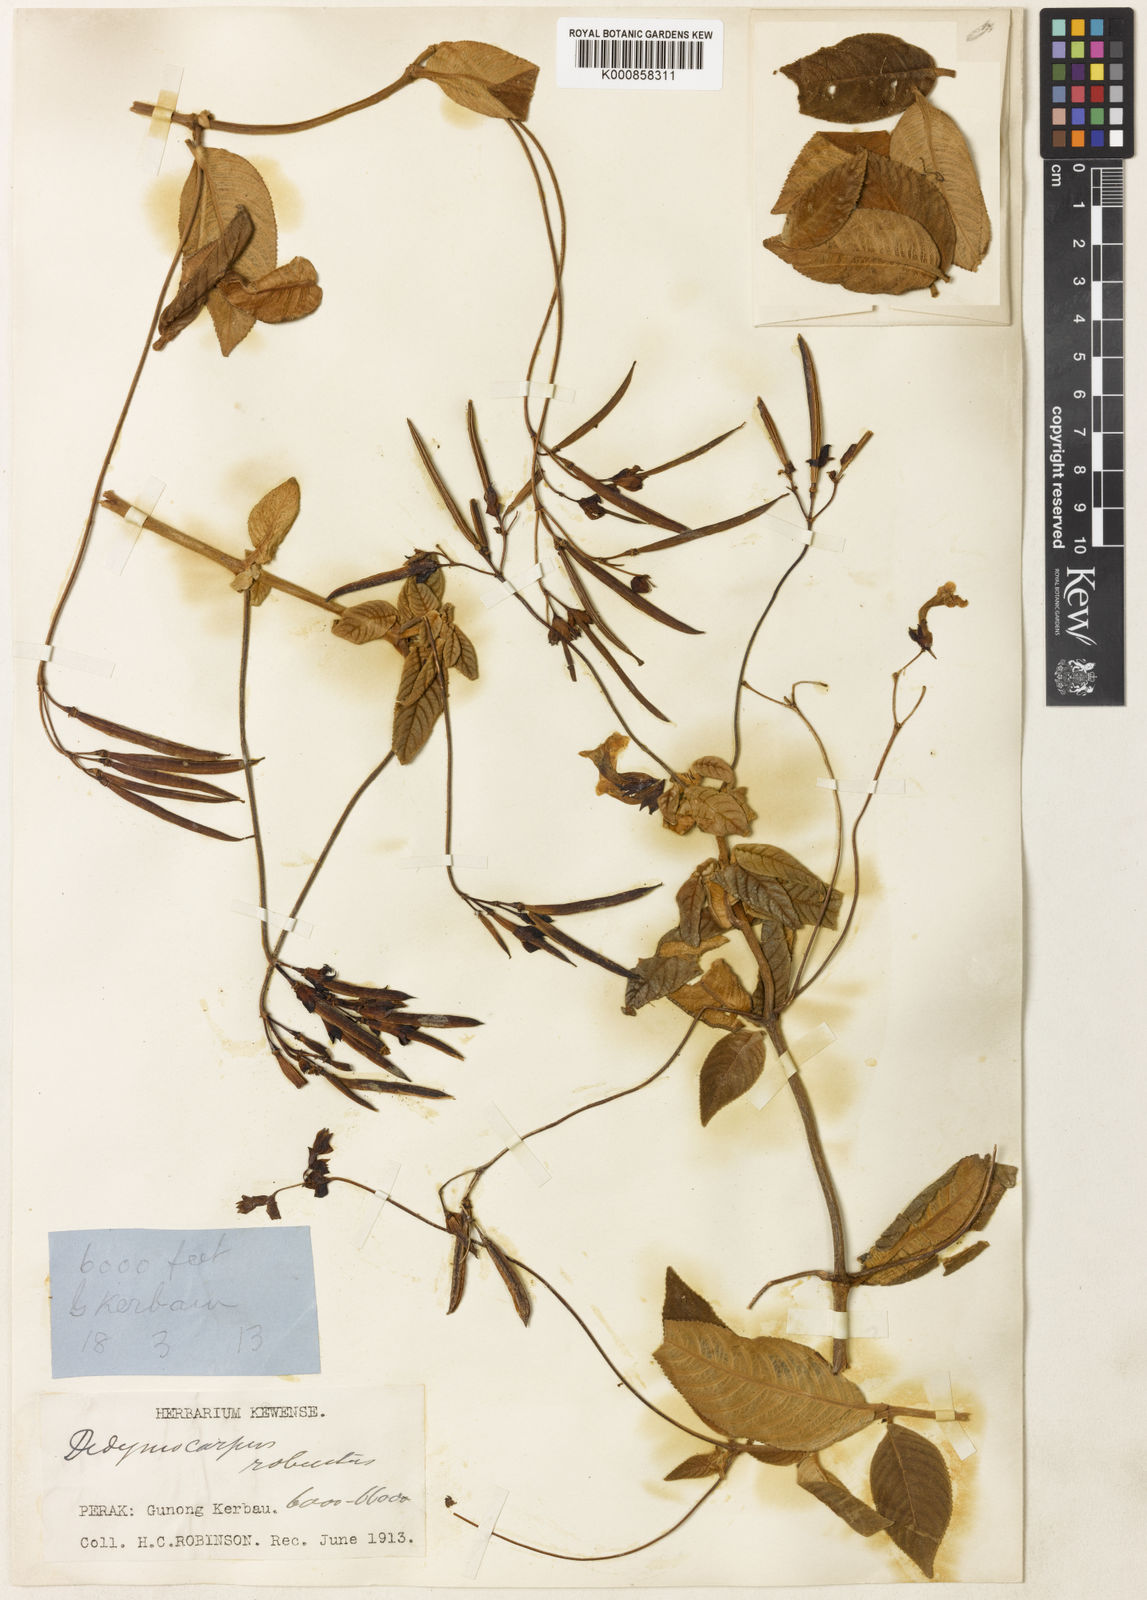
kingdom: Plantae
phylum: Tracheophyta
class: Magnoliopsida
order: Lamiales
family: Gesneriaceae
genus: Didymocarpus
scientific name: Didymocarpus robustus
